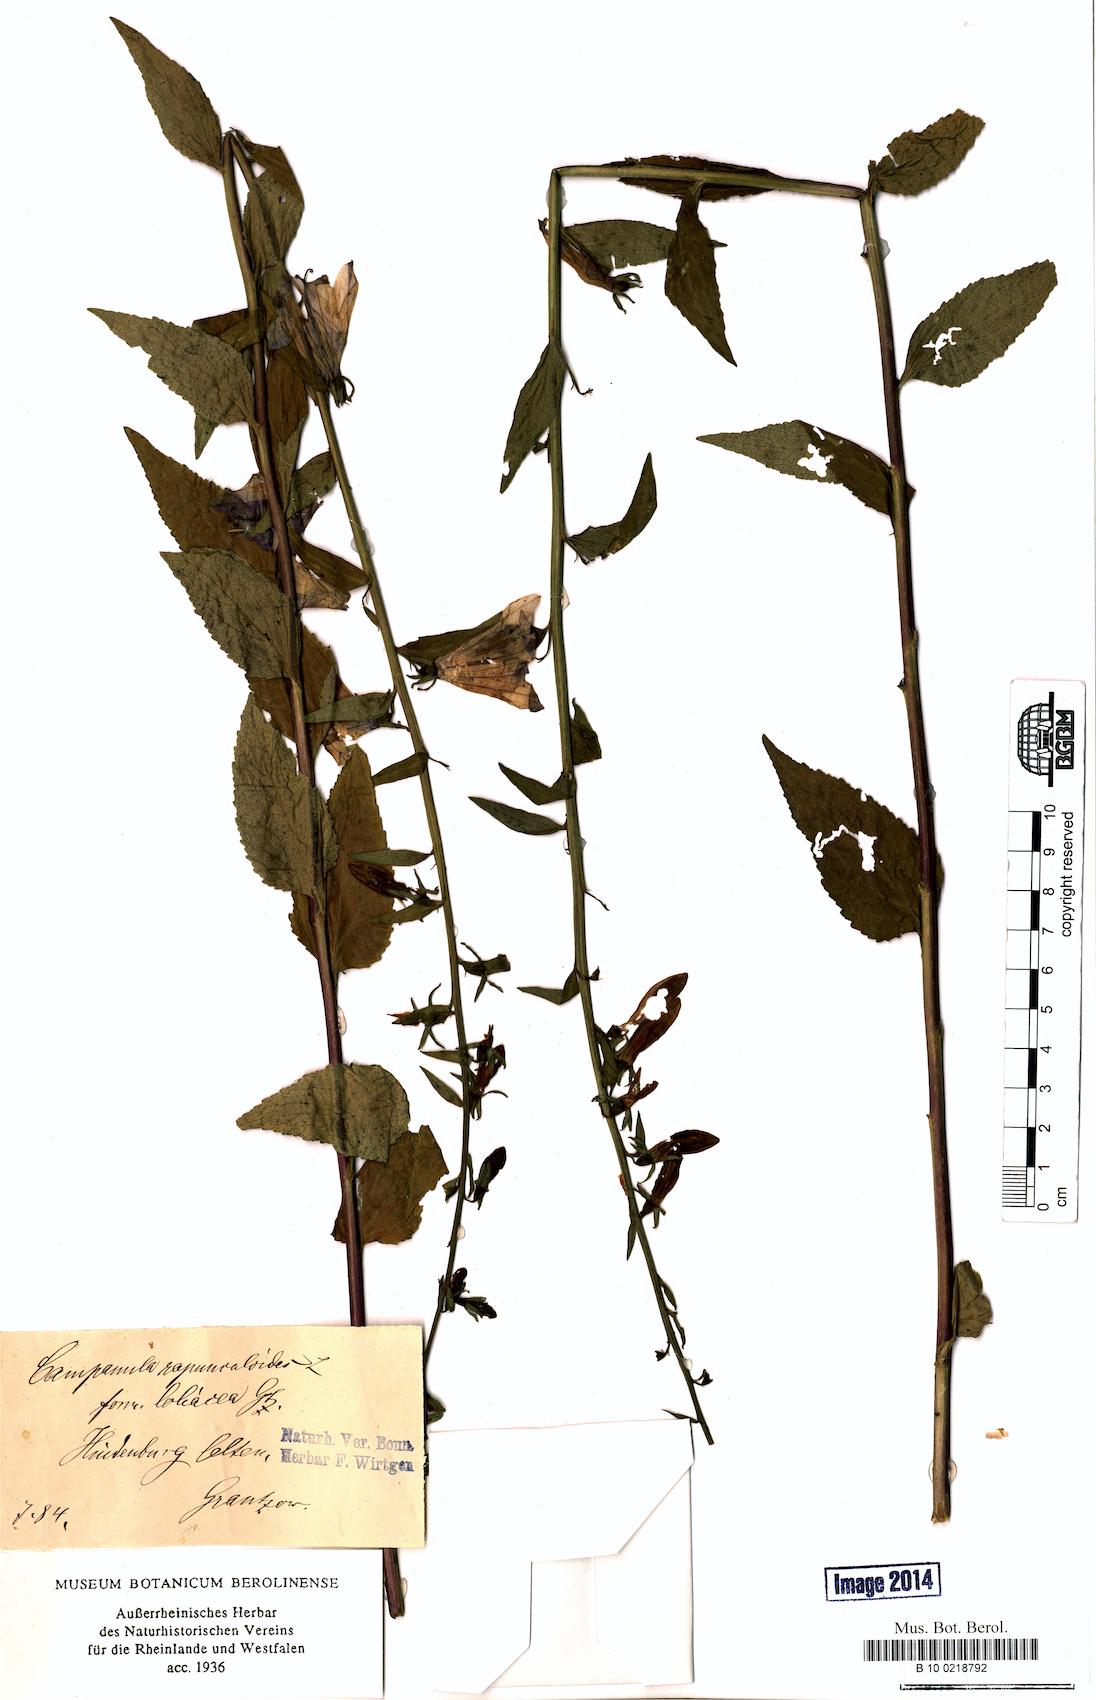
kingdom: Plantae
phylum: Tracheophyta
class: Magnoliopsida
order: Asterales
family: Campanulaceae
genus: Campanula
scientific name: Campanula rapunculoides
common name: Creeping bellflower
